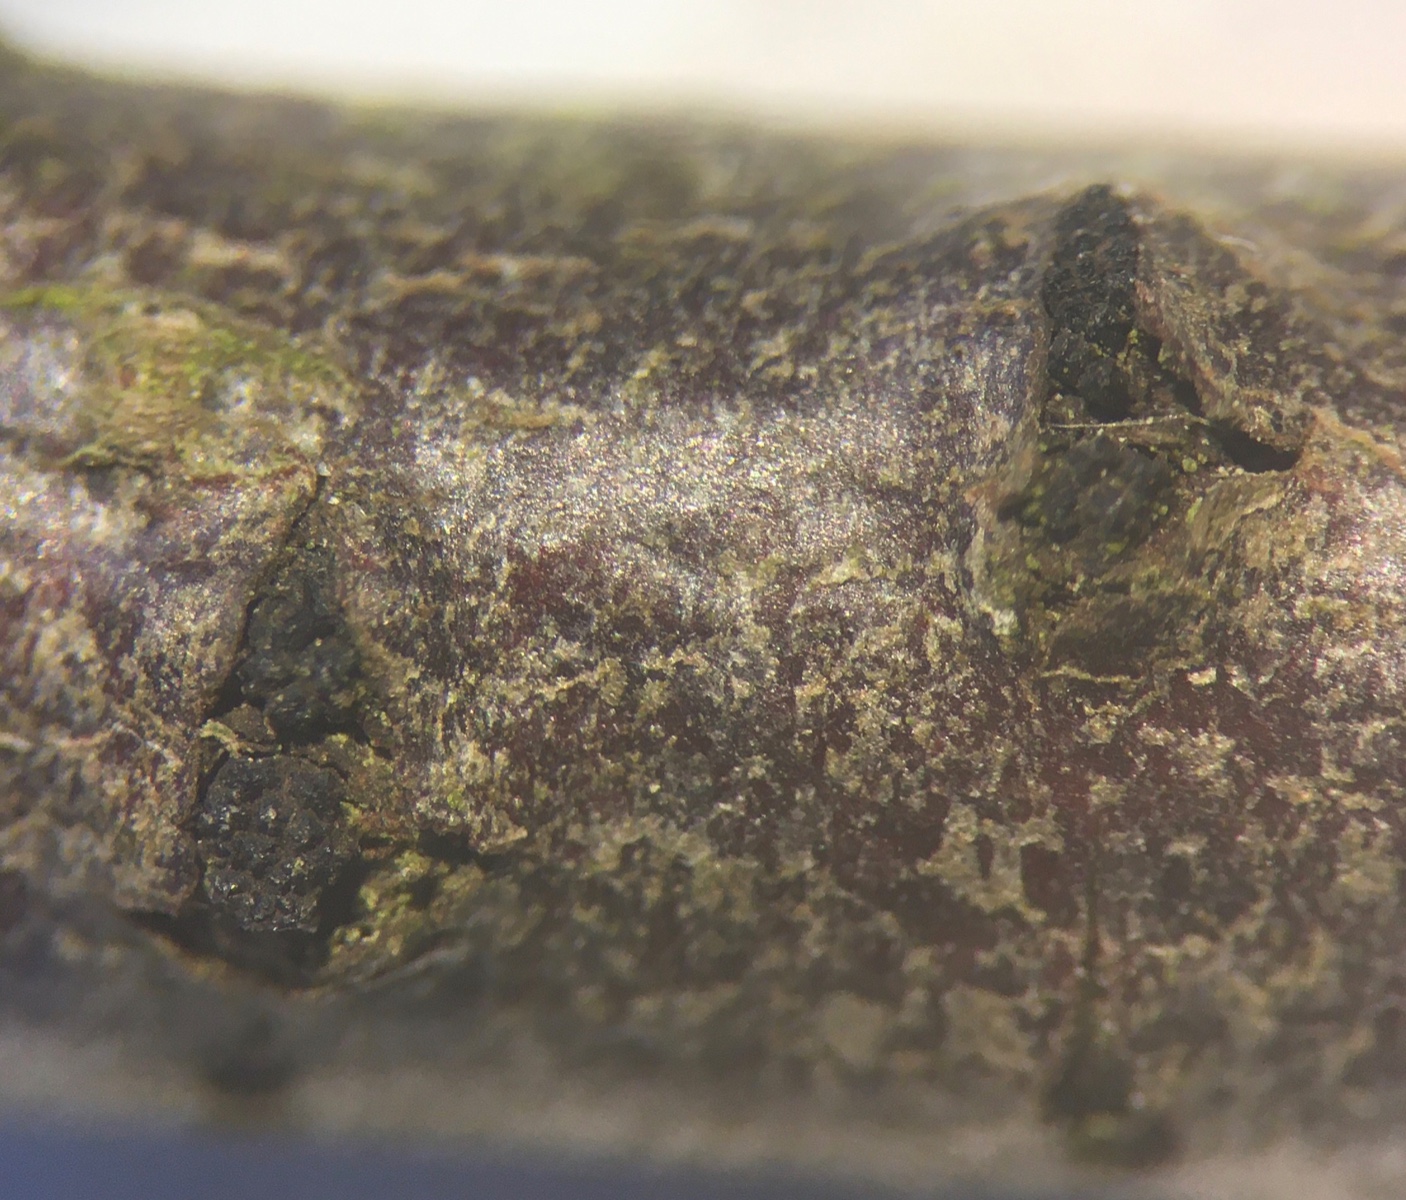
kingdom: Fungi
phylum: Ascomycota
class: Sordariomycetes
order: Xylariales
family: Diatrypaceae
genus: Eutypella
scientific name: Eutypella prunastri
